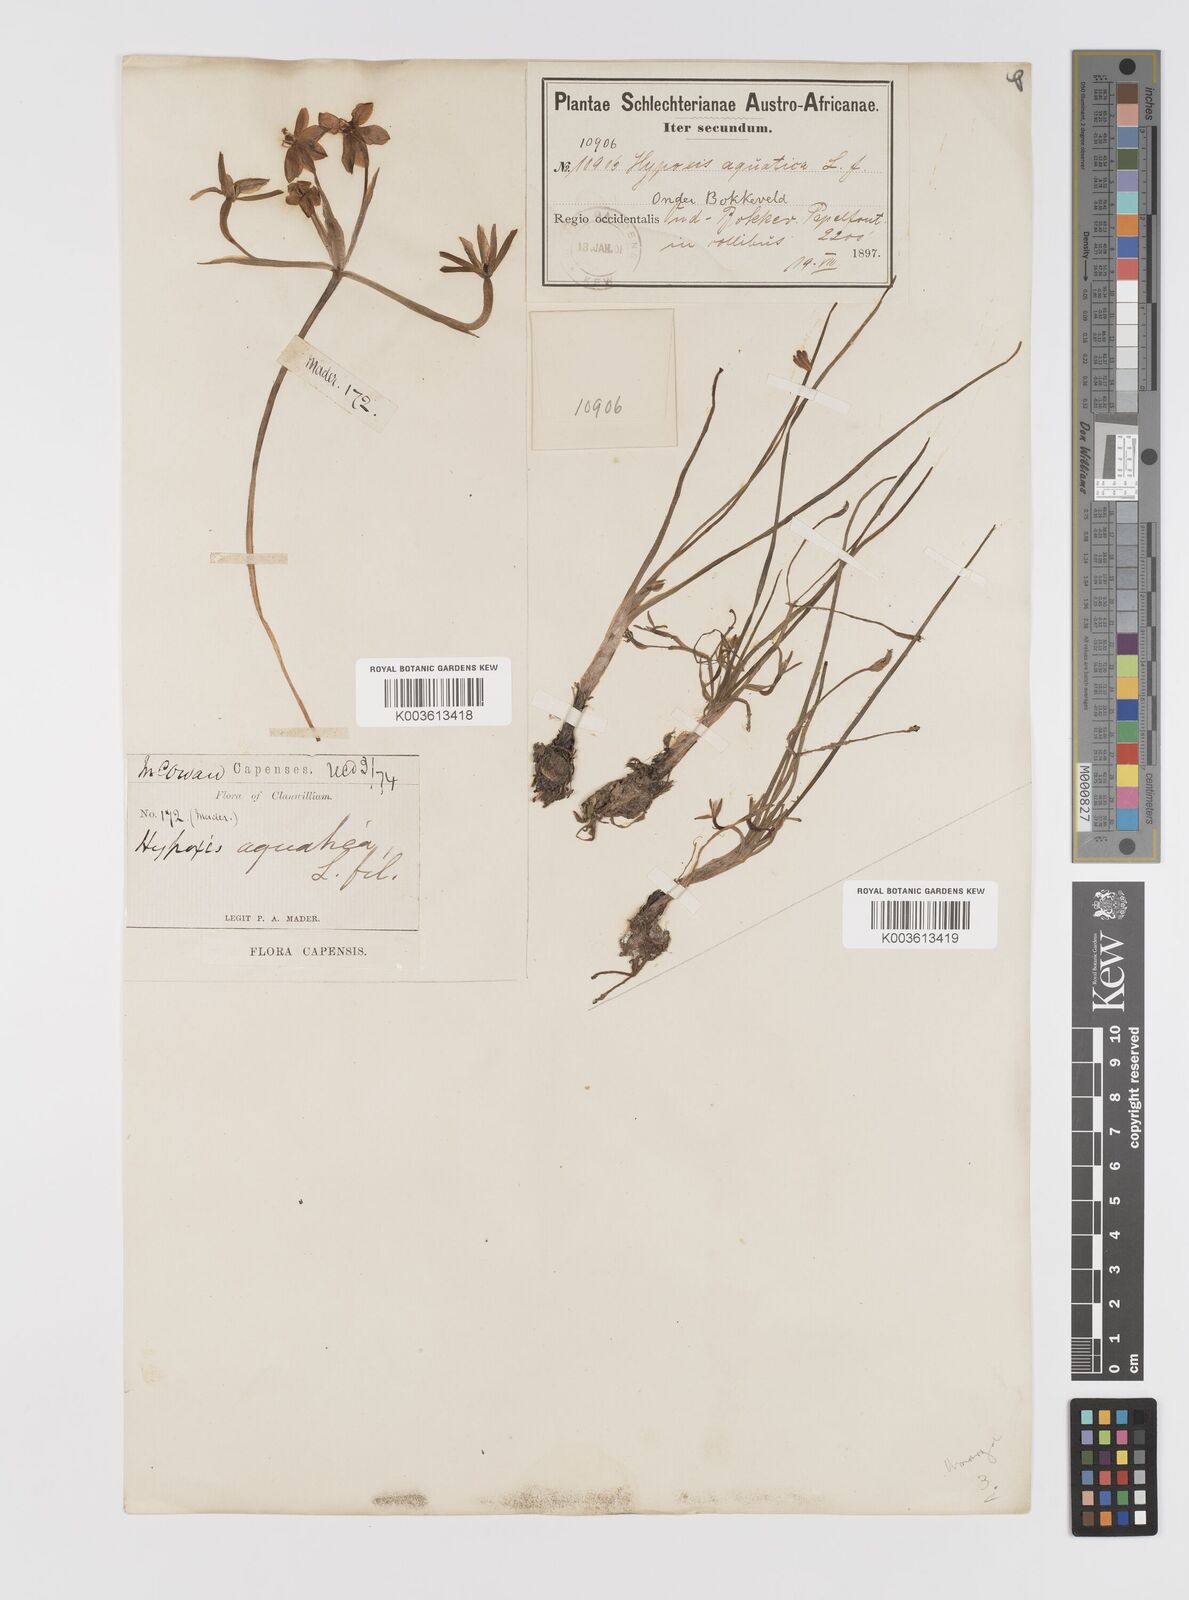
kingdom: Plantae
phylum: Tracheophyta
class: Liliopsida
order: Asparagales
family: Hypoxidaceae
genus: Pauridia
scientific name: Pauridia aquatica
